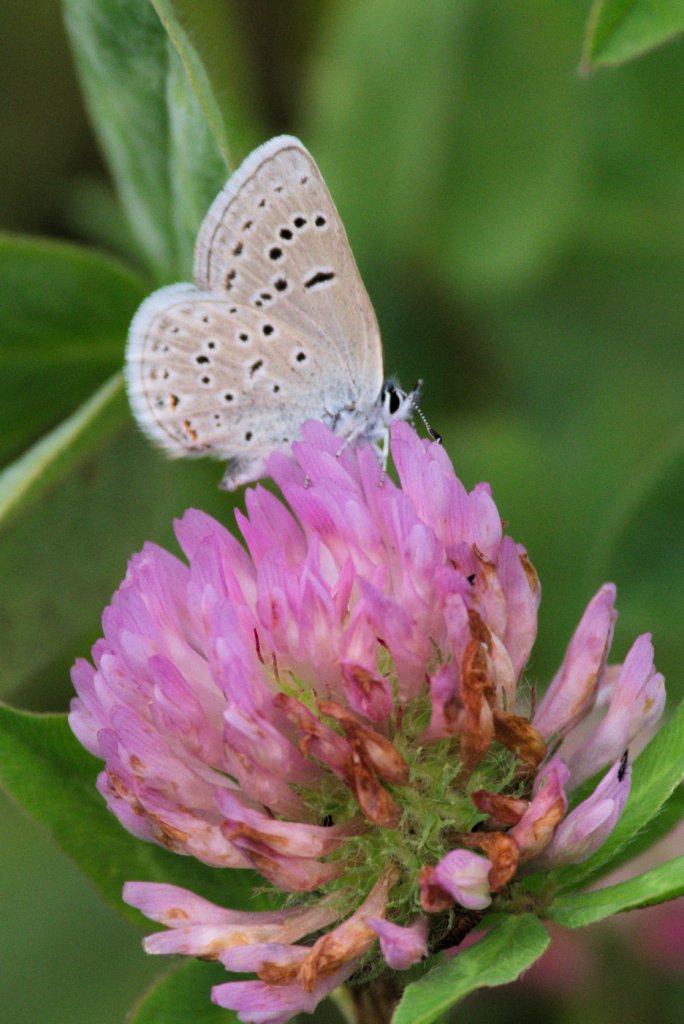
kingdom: Animalia
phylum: Arthropoda
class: Insecta
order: Lepidoptera
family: Lycaenidae
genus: Plebejus
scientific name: Plebejus saepiolus
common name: Greenish Blue
